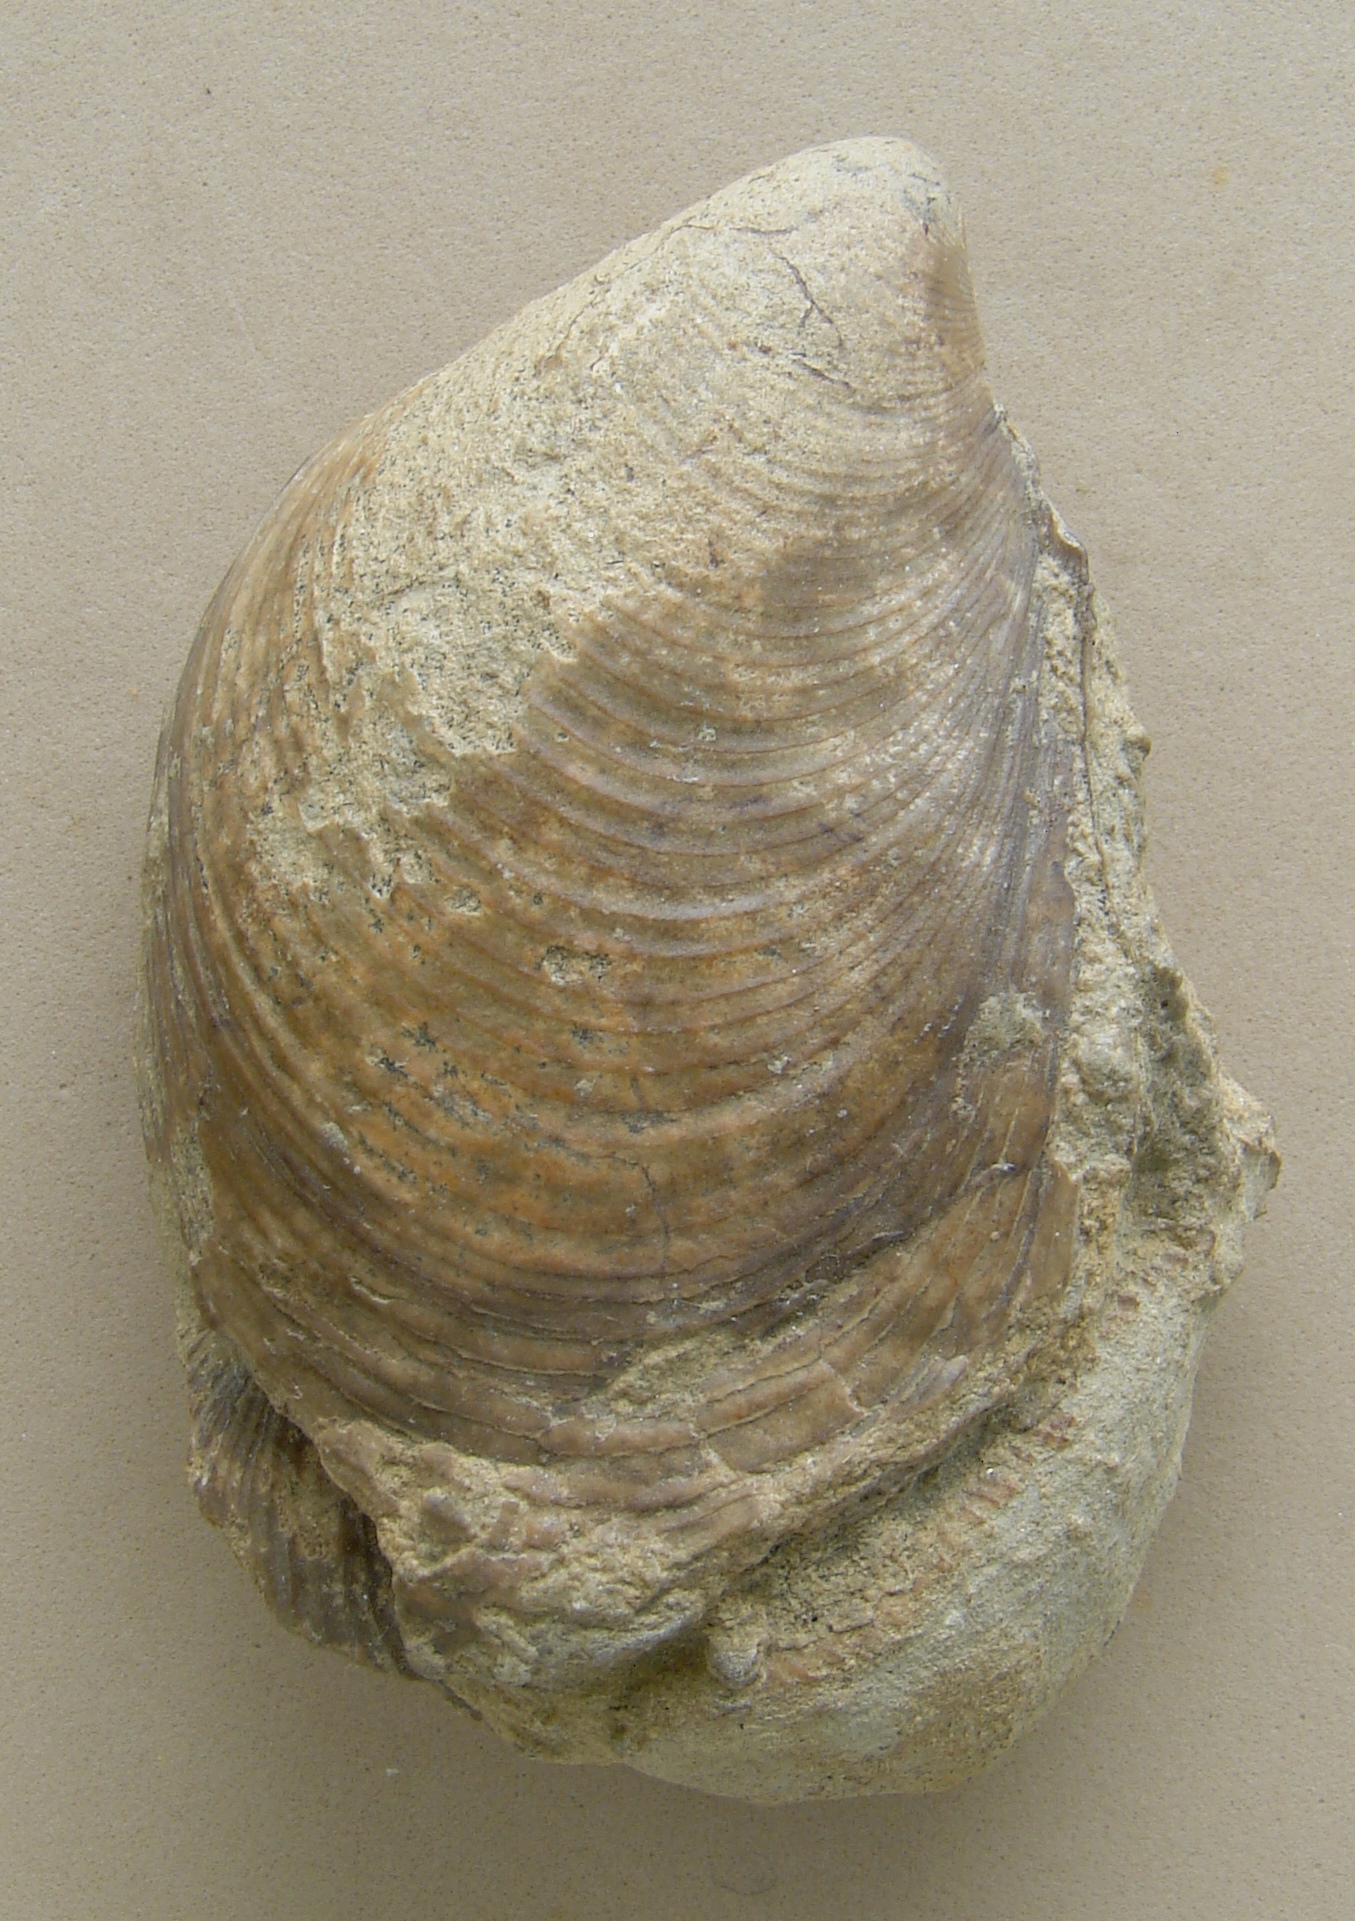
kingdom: Animalia
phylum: Mollusca
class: Bivalvia
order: Myalinida
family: Inoceramidae
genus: Mytiloceramus
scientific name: Mytiloceramus Inoceramus polyplocus
